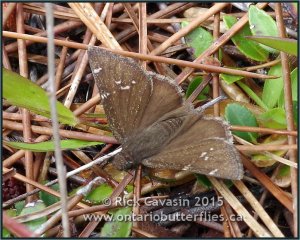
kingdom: Animalia
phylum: Arthropoda
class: Insecta
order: Lepidoptera
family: Hesperiidae
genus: Thorybes
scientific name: Thorybes mexicana
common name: Confused Cloudywing
